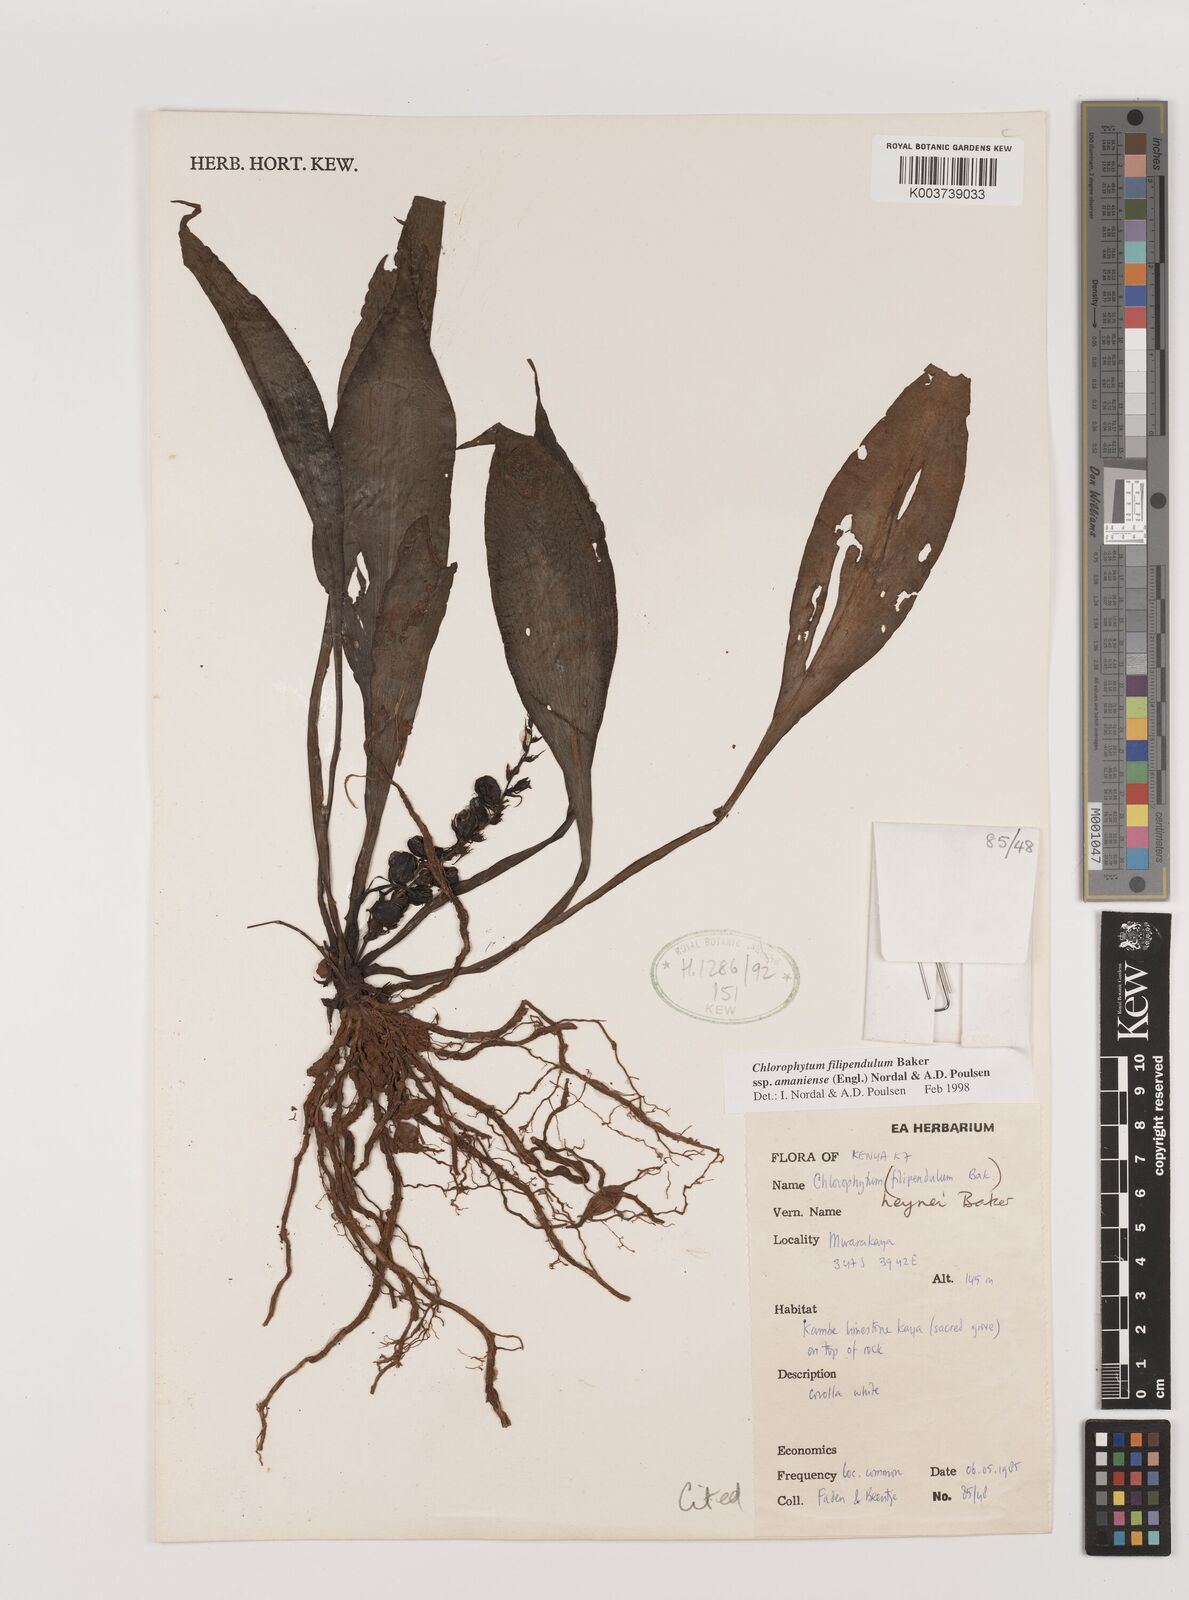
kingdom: Plantae
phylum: Tracheophyta
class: Liliopsida
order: Asparagales
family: Asparagaceae
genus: Chlorophytum
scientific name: Chlorophytum filipendulum
